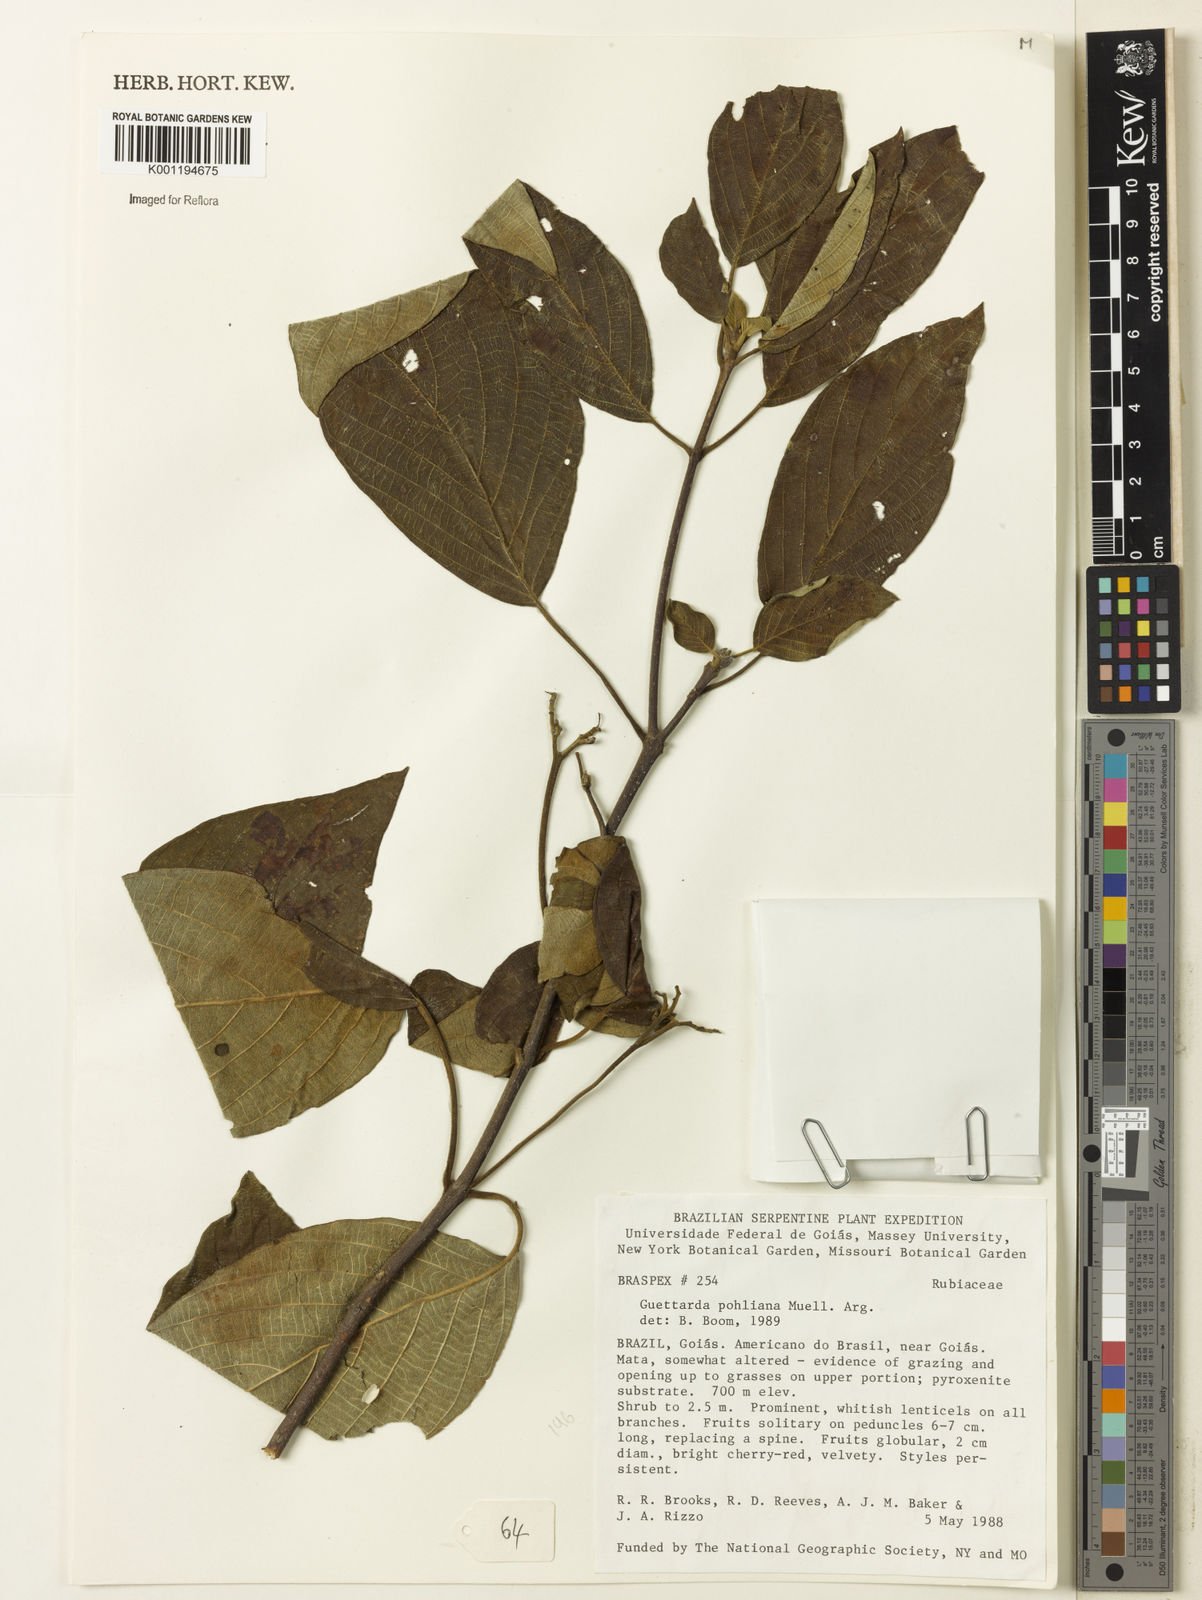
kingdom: Plantae
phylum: Tracheophyta
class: Magnoliopsida
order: Gentianales
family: Rubiaceae
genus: Guettarda
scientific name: Guettarda
